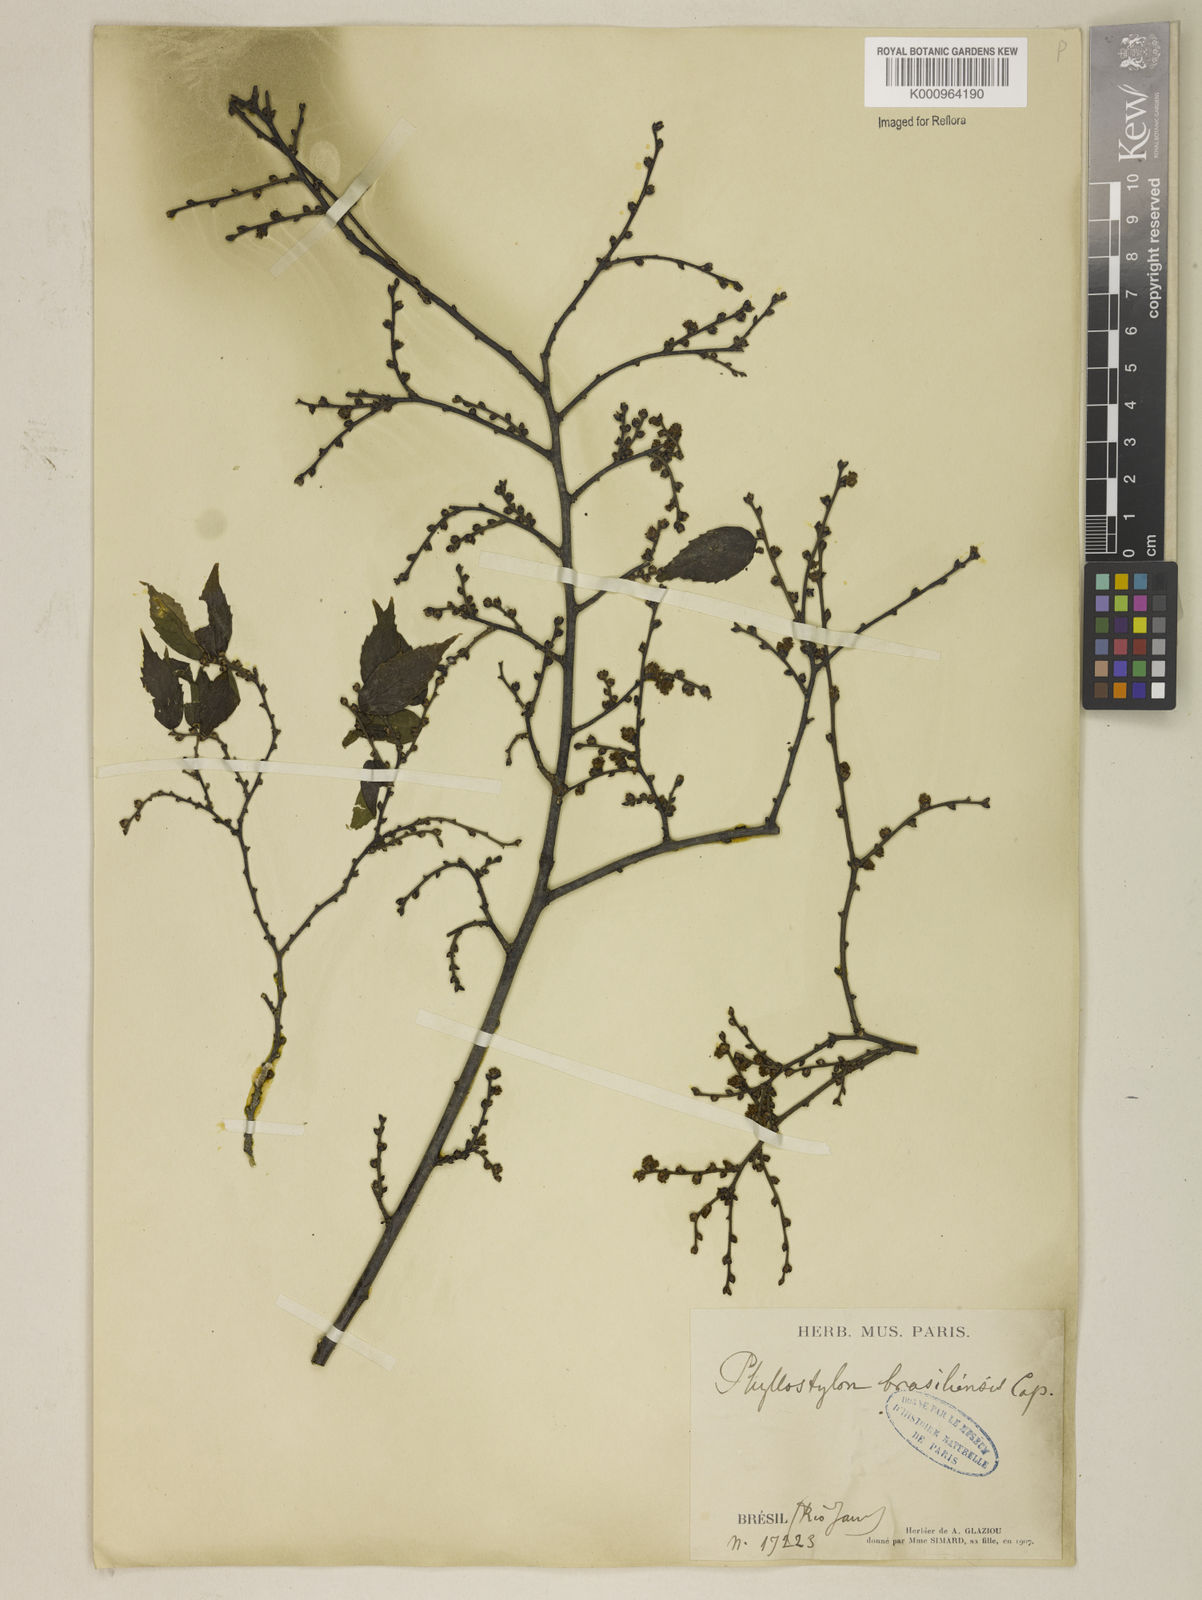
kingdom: Plantae
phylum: Tracheophyta
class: Magnoliopsida
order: Rosales
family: Ulmaceae
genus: Phyllostylon
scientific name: Phyllostylon brasiliensis
